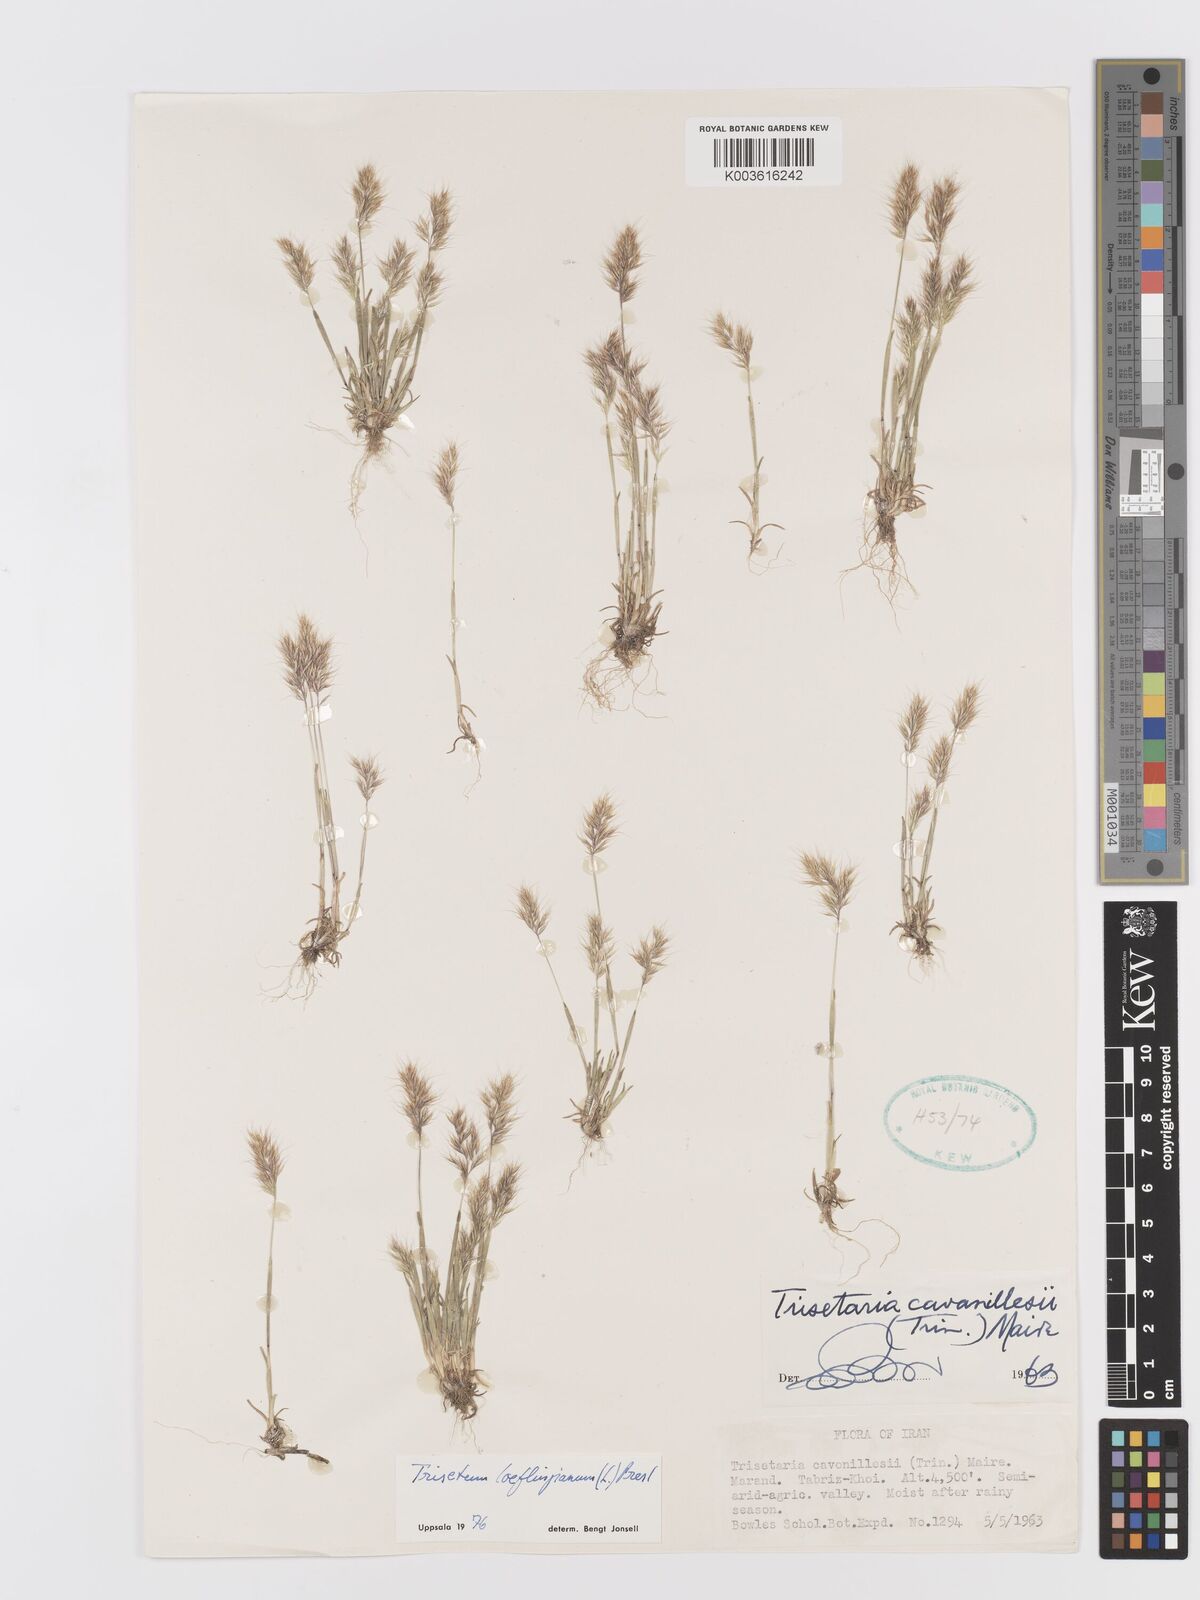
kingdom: Plantae
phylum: Tracheophyta
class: Liliopsida
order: Poales
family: Poaceae
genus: Trisetaria
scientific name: Trisetaria loeflingiana
